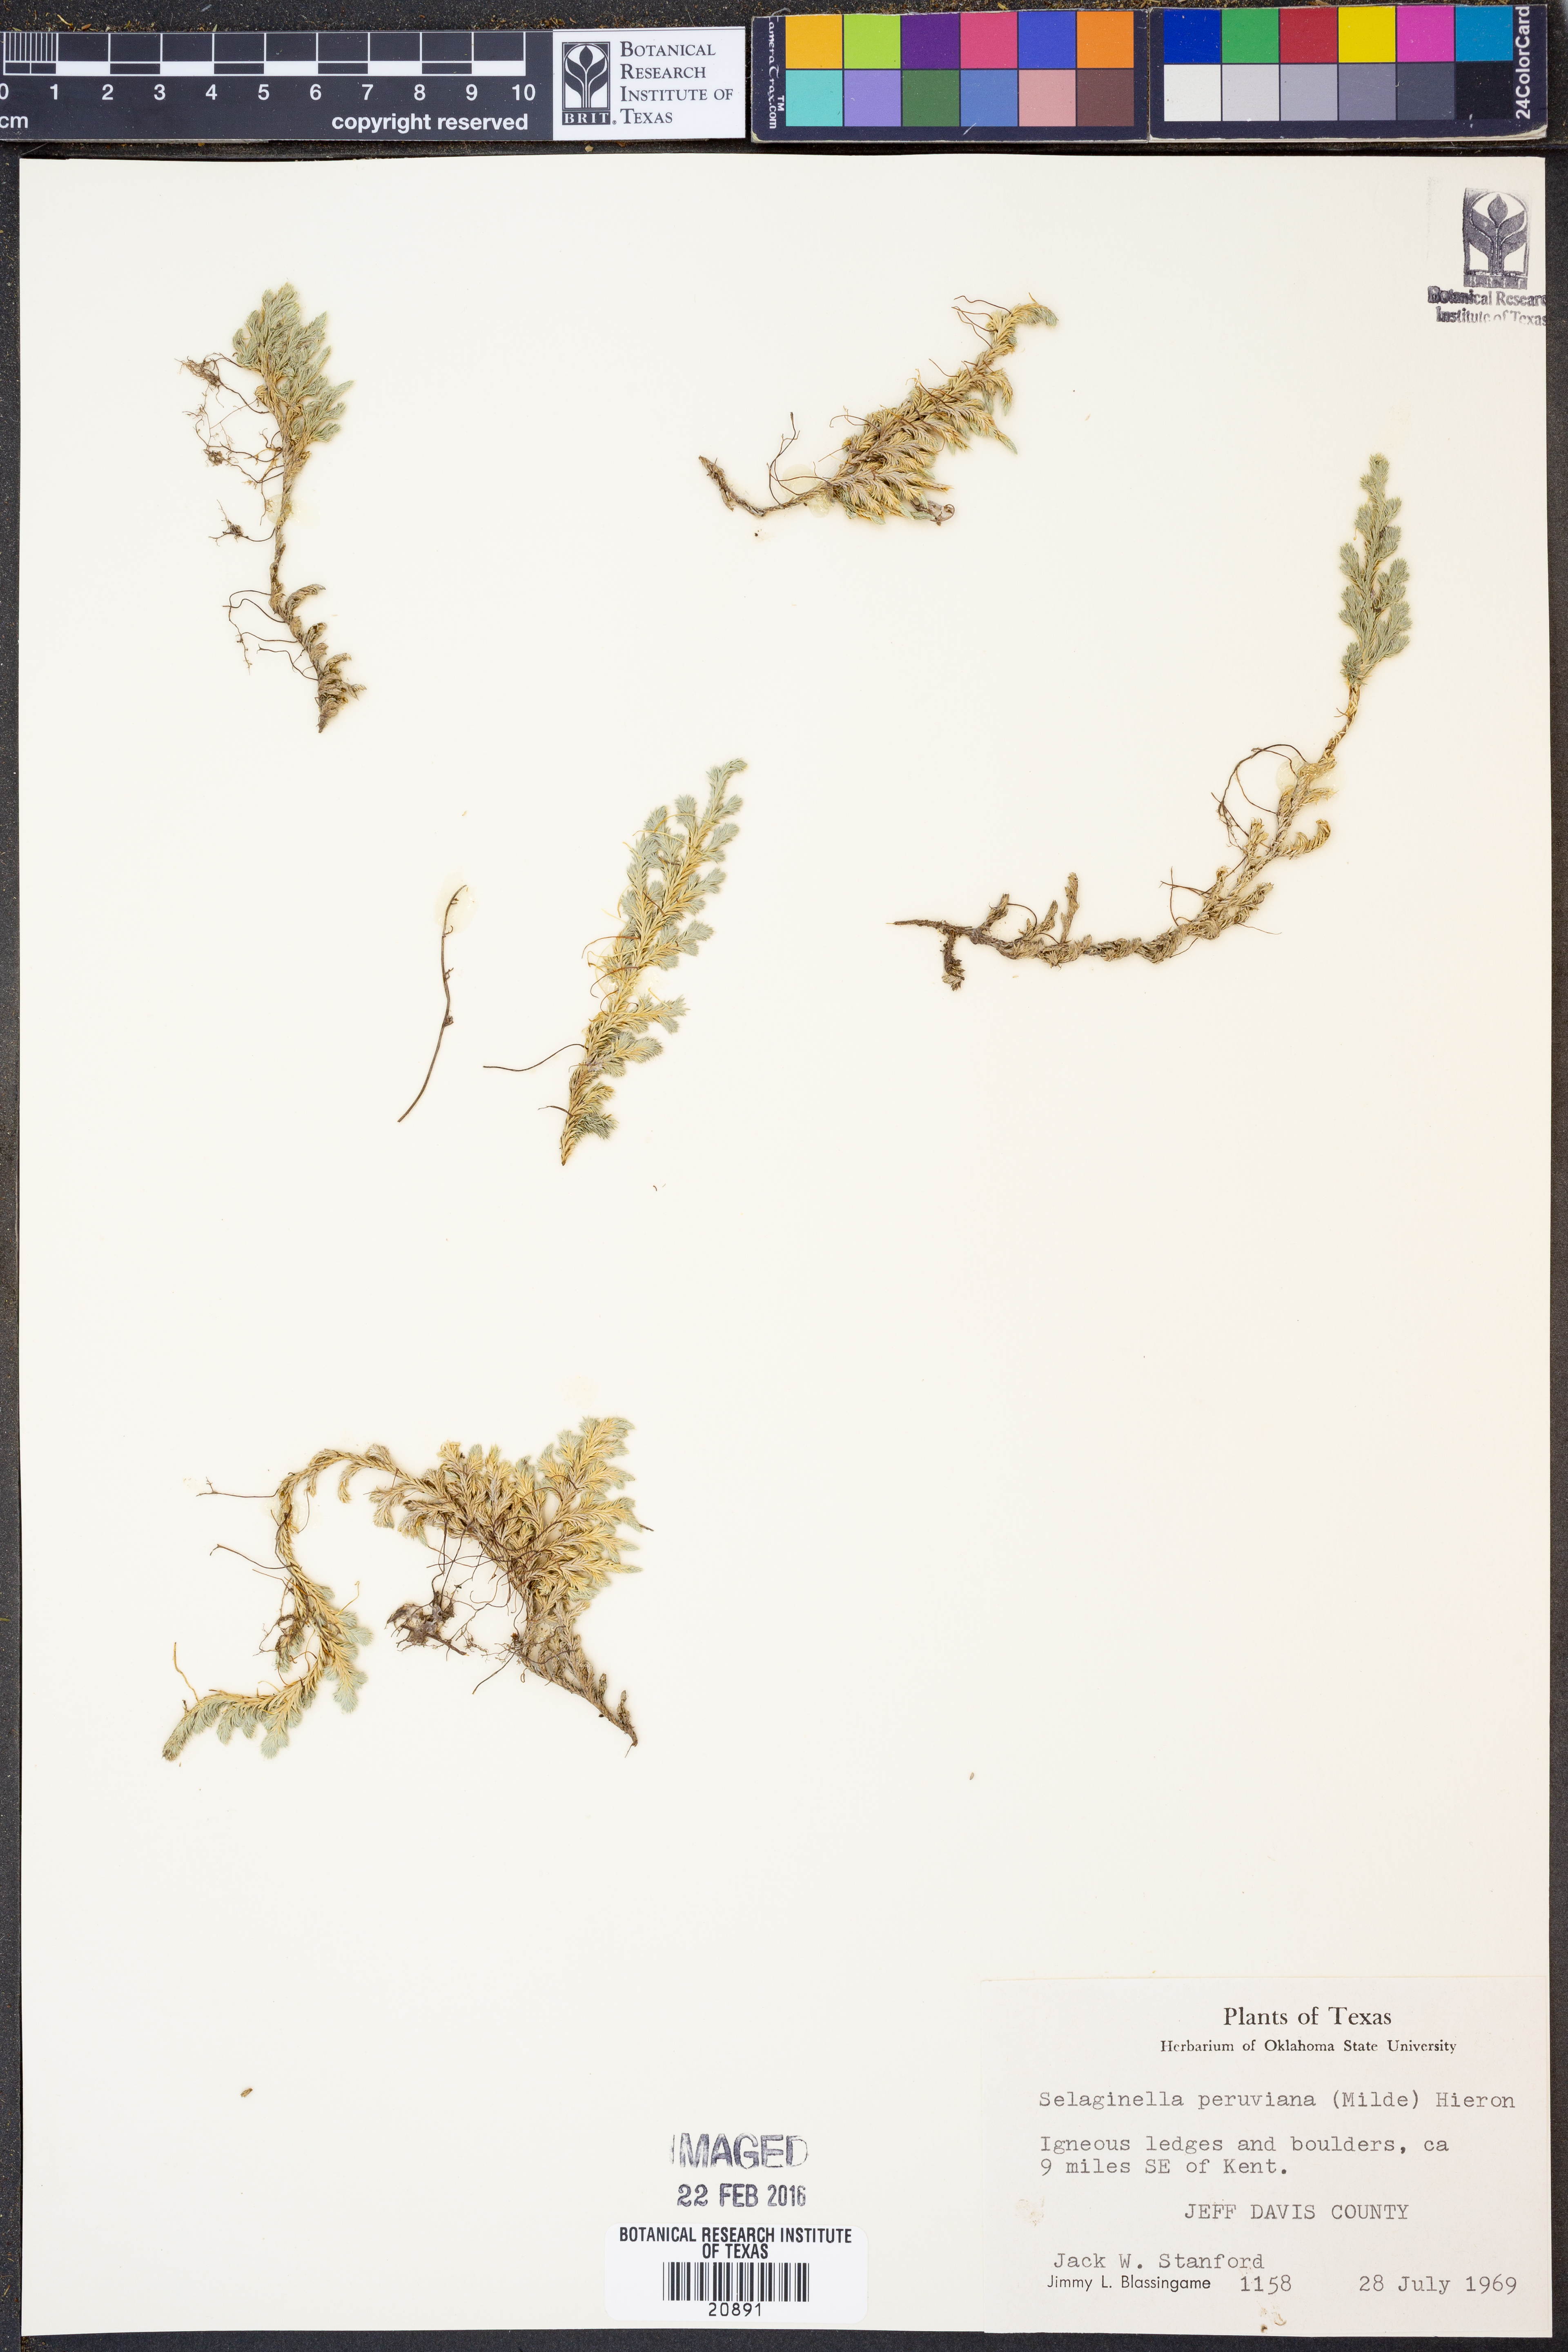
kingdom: Plantae
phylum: Tracheophyta
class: Lycopodiopsida
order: Selaginellales
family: Selaginellaceae
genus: Selaginella
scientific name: Selaginella peruviana
